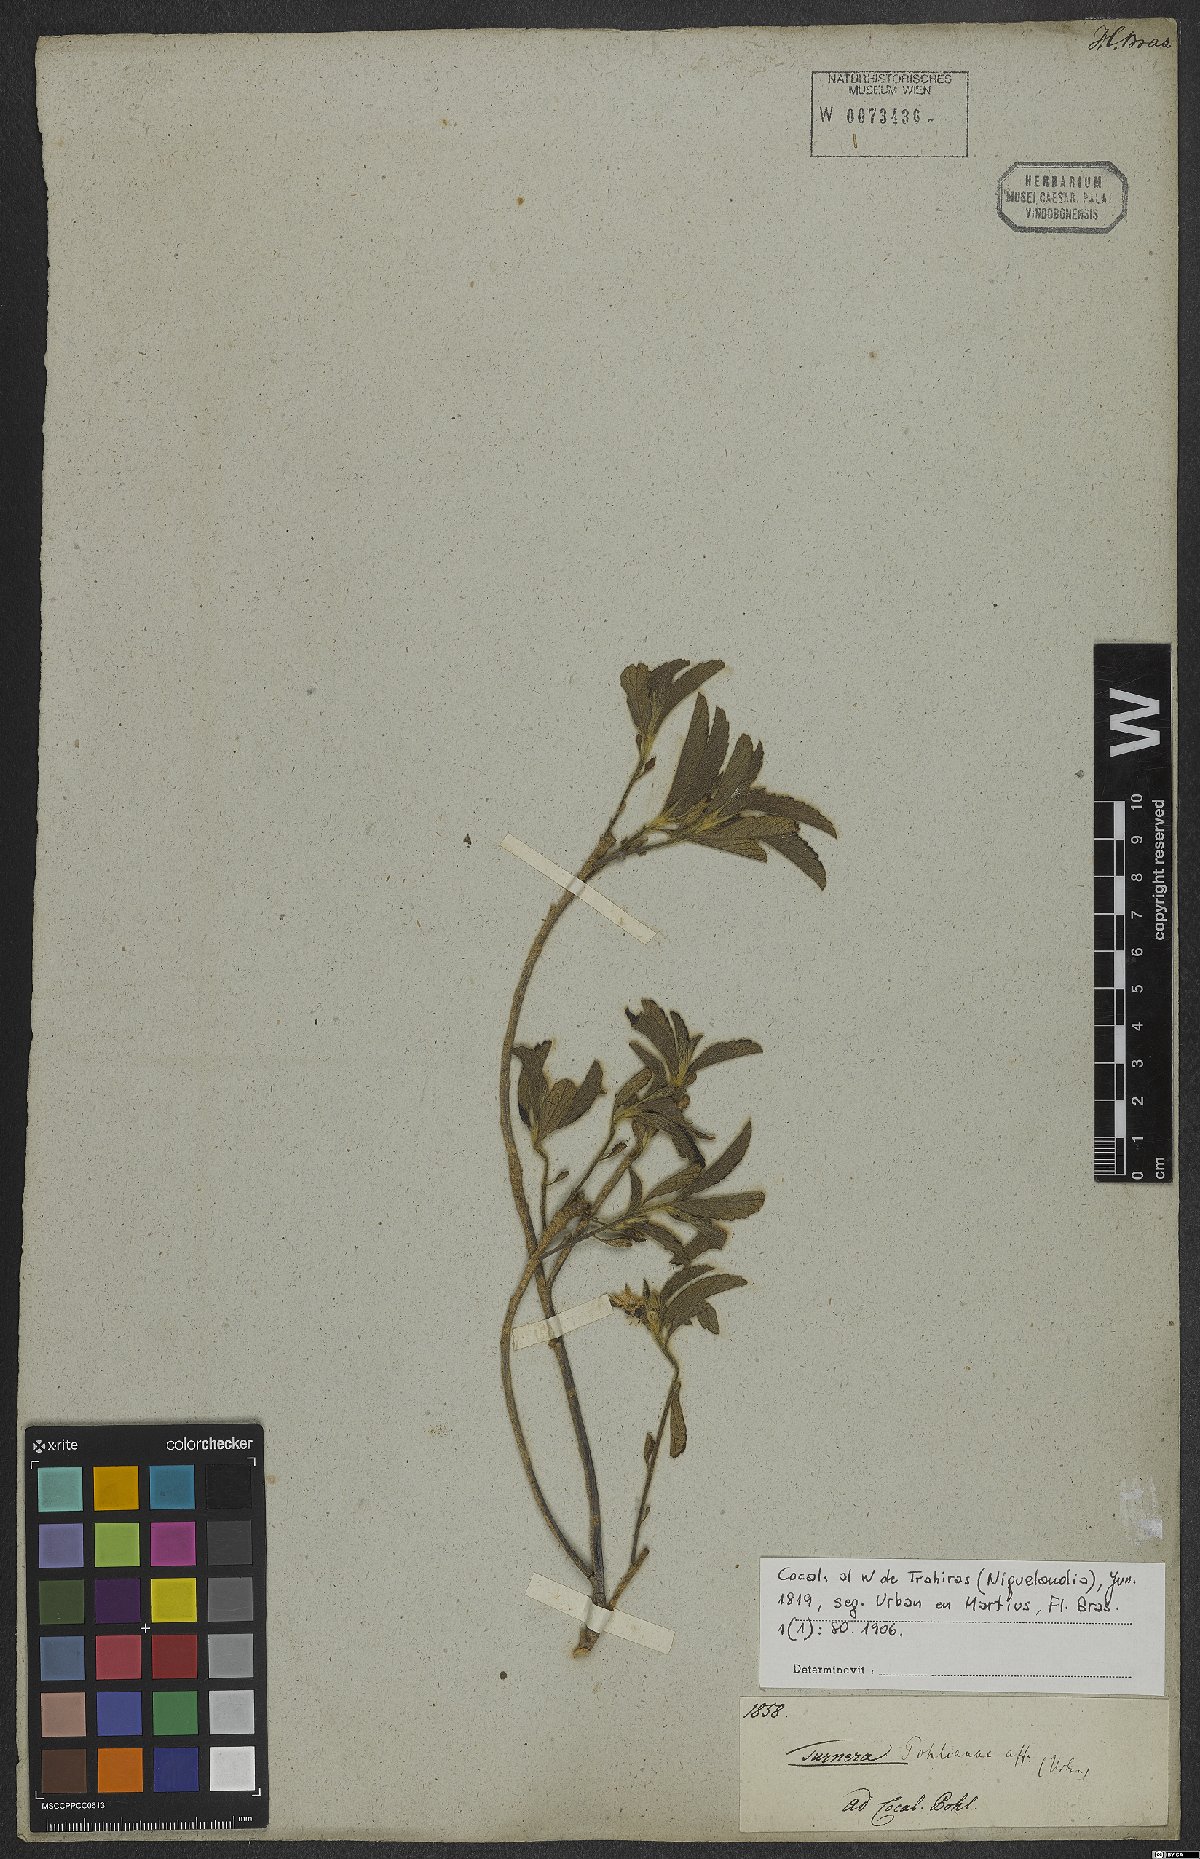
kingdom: Plantae
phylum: Tracheophyta
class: Magnoliopsida
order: Malpighiales
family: Turneraceae
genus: Turnera
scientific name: Turnera pohliana
